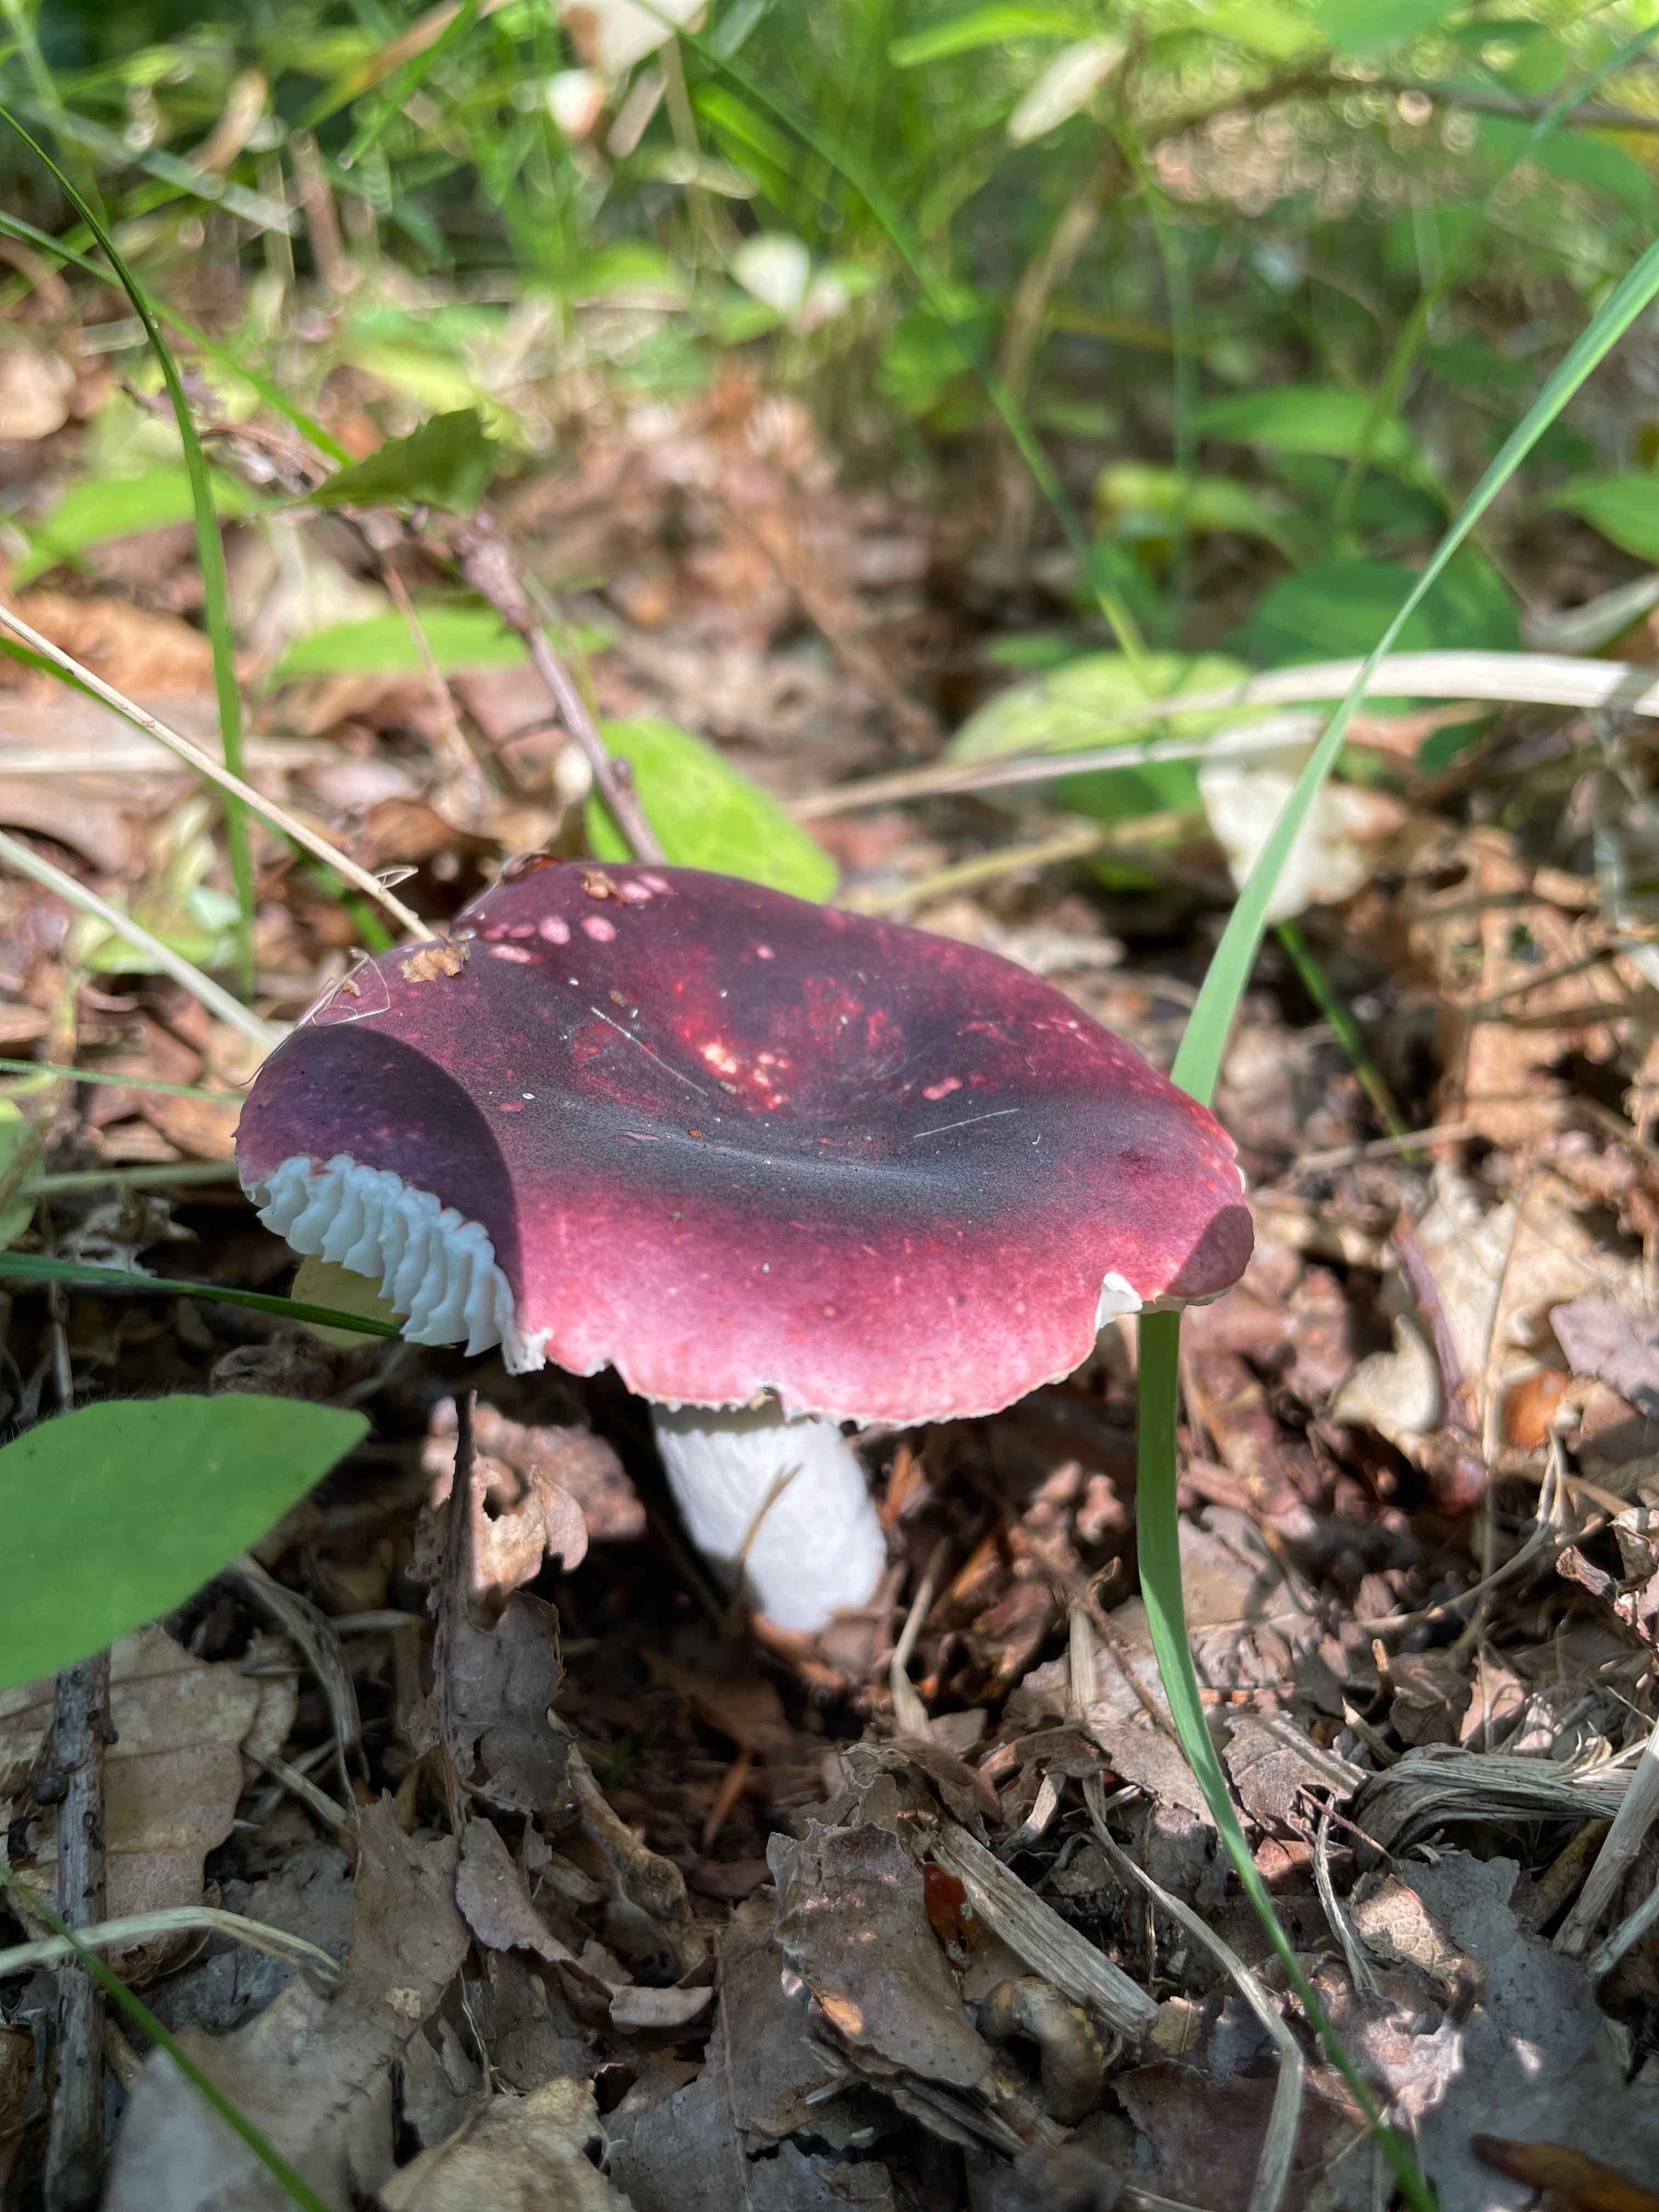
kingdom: Fungi
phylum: Basidiomycota
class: Agaricomycetes
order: Russulales
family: Russulaceae
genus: Russula
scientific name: Russula
